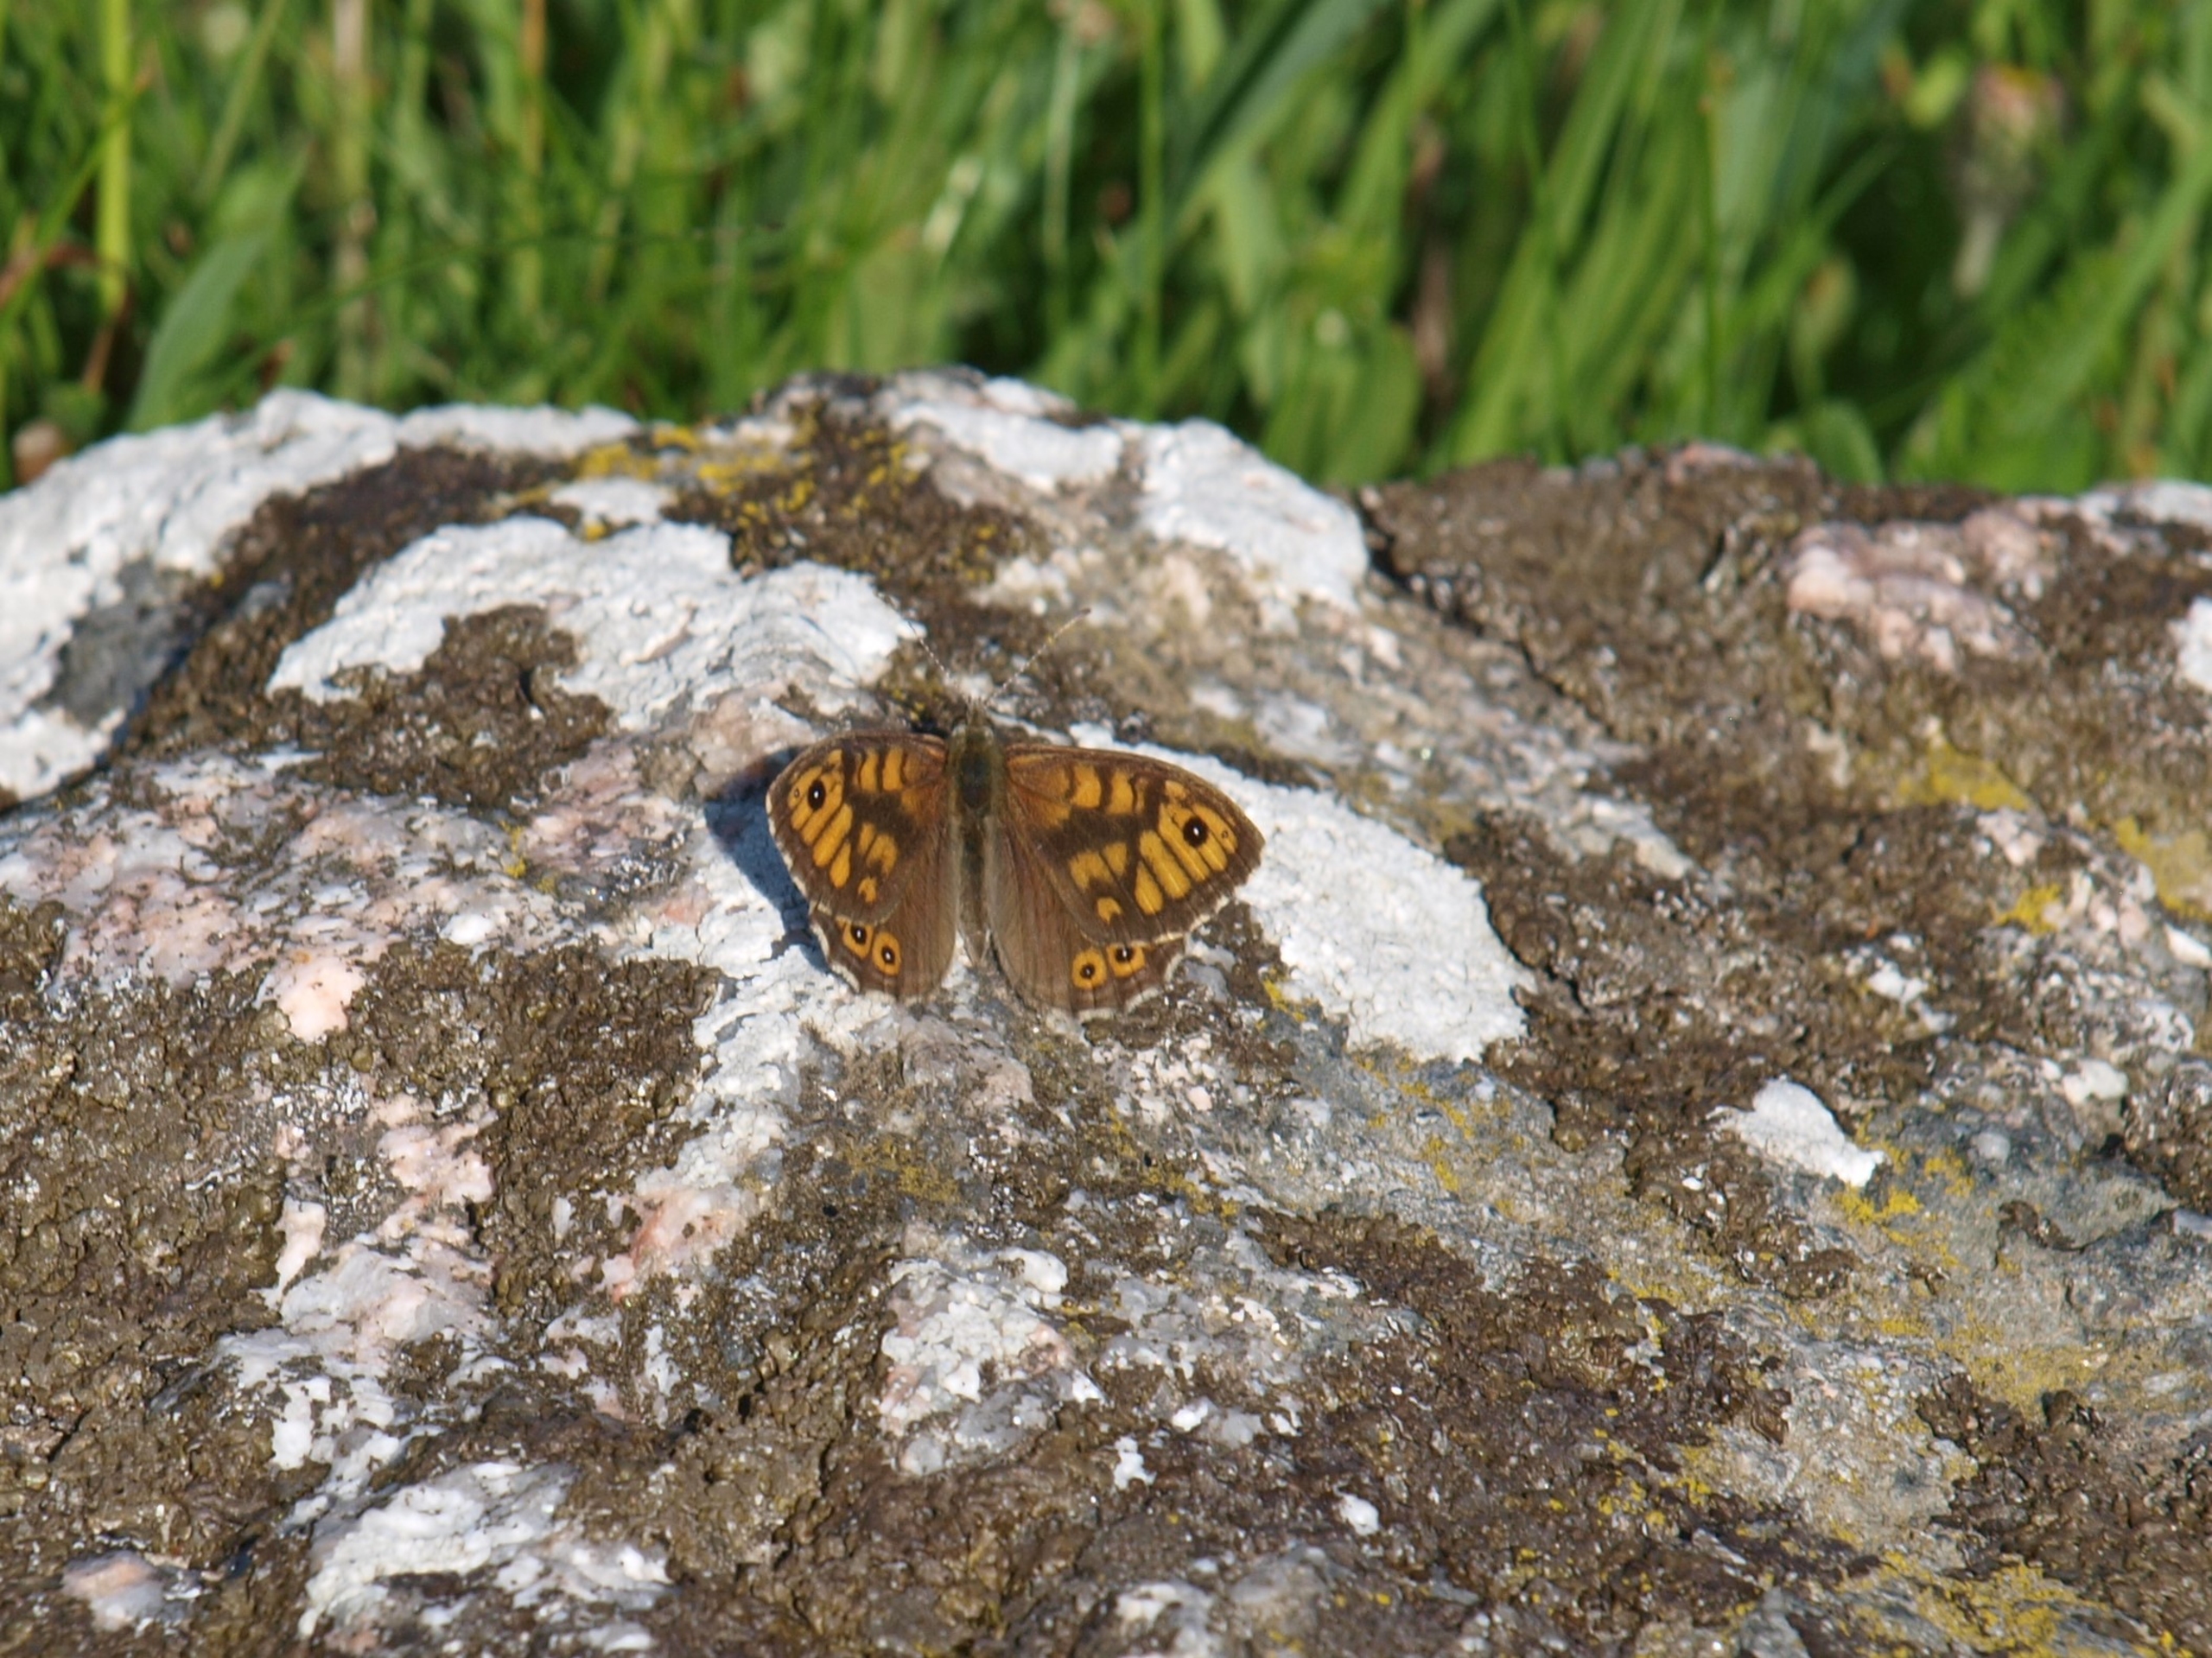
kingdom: Animalia
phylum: Arthropoda
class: Insecta
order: Lepidoptera
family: Nymphalidae
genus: Pararge
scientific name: Pararge Lasiommata megera
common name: Vejrandøje
